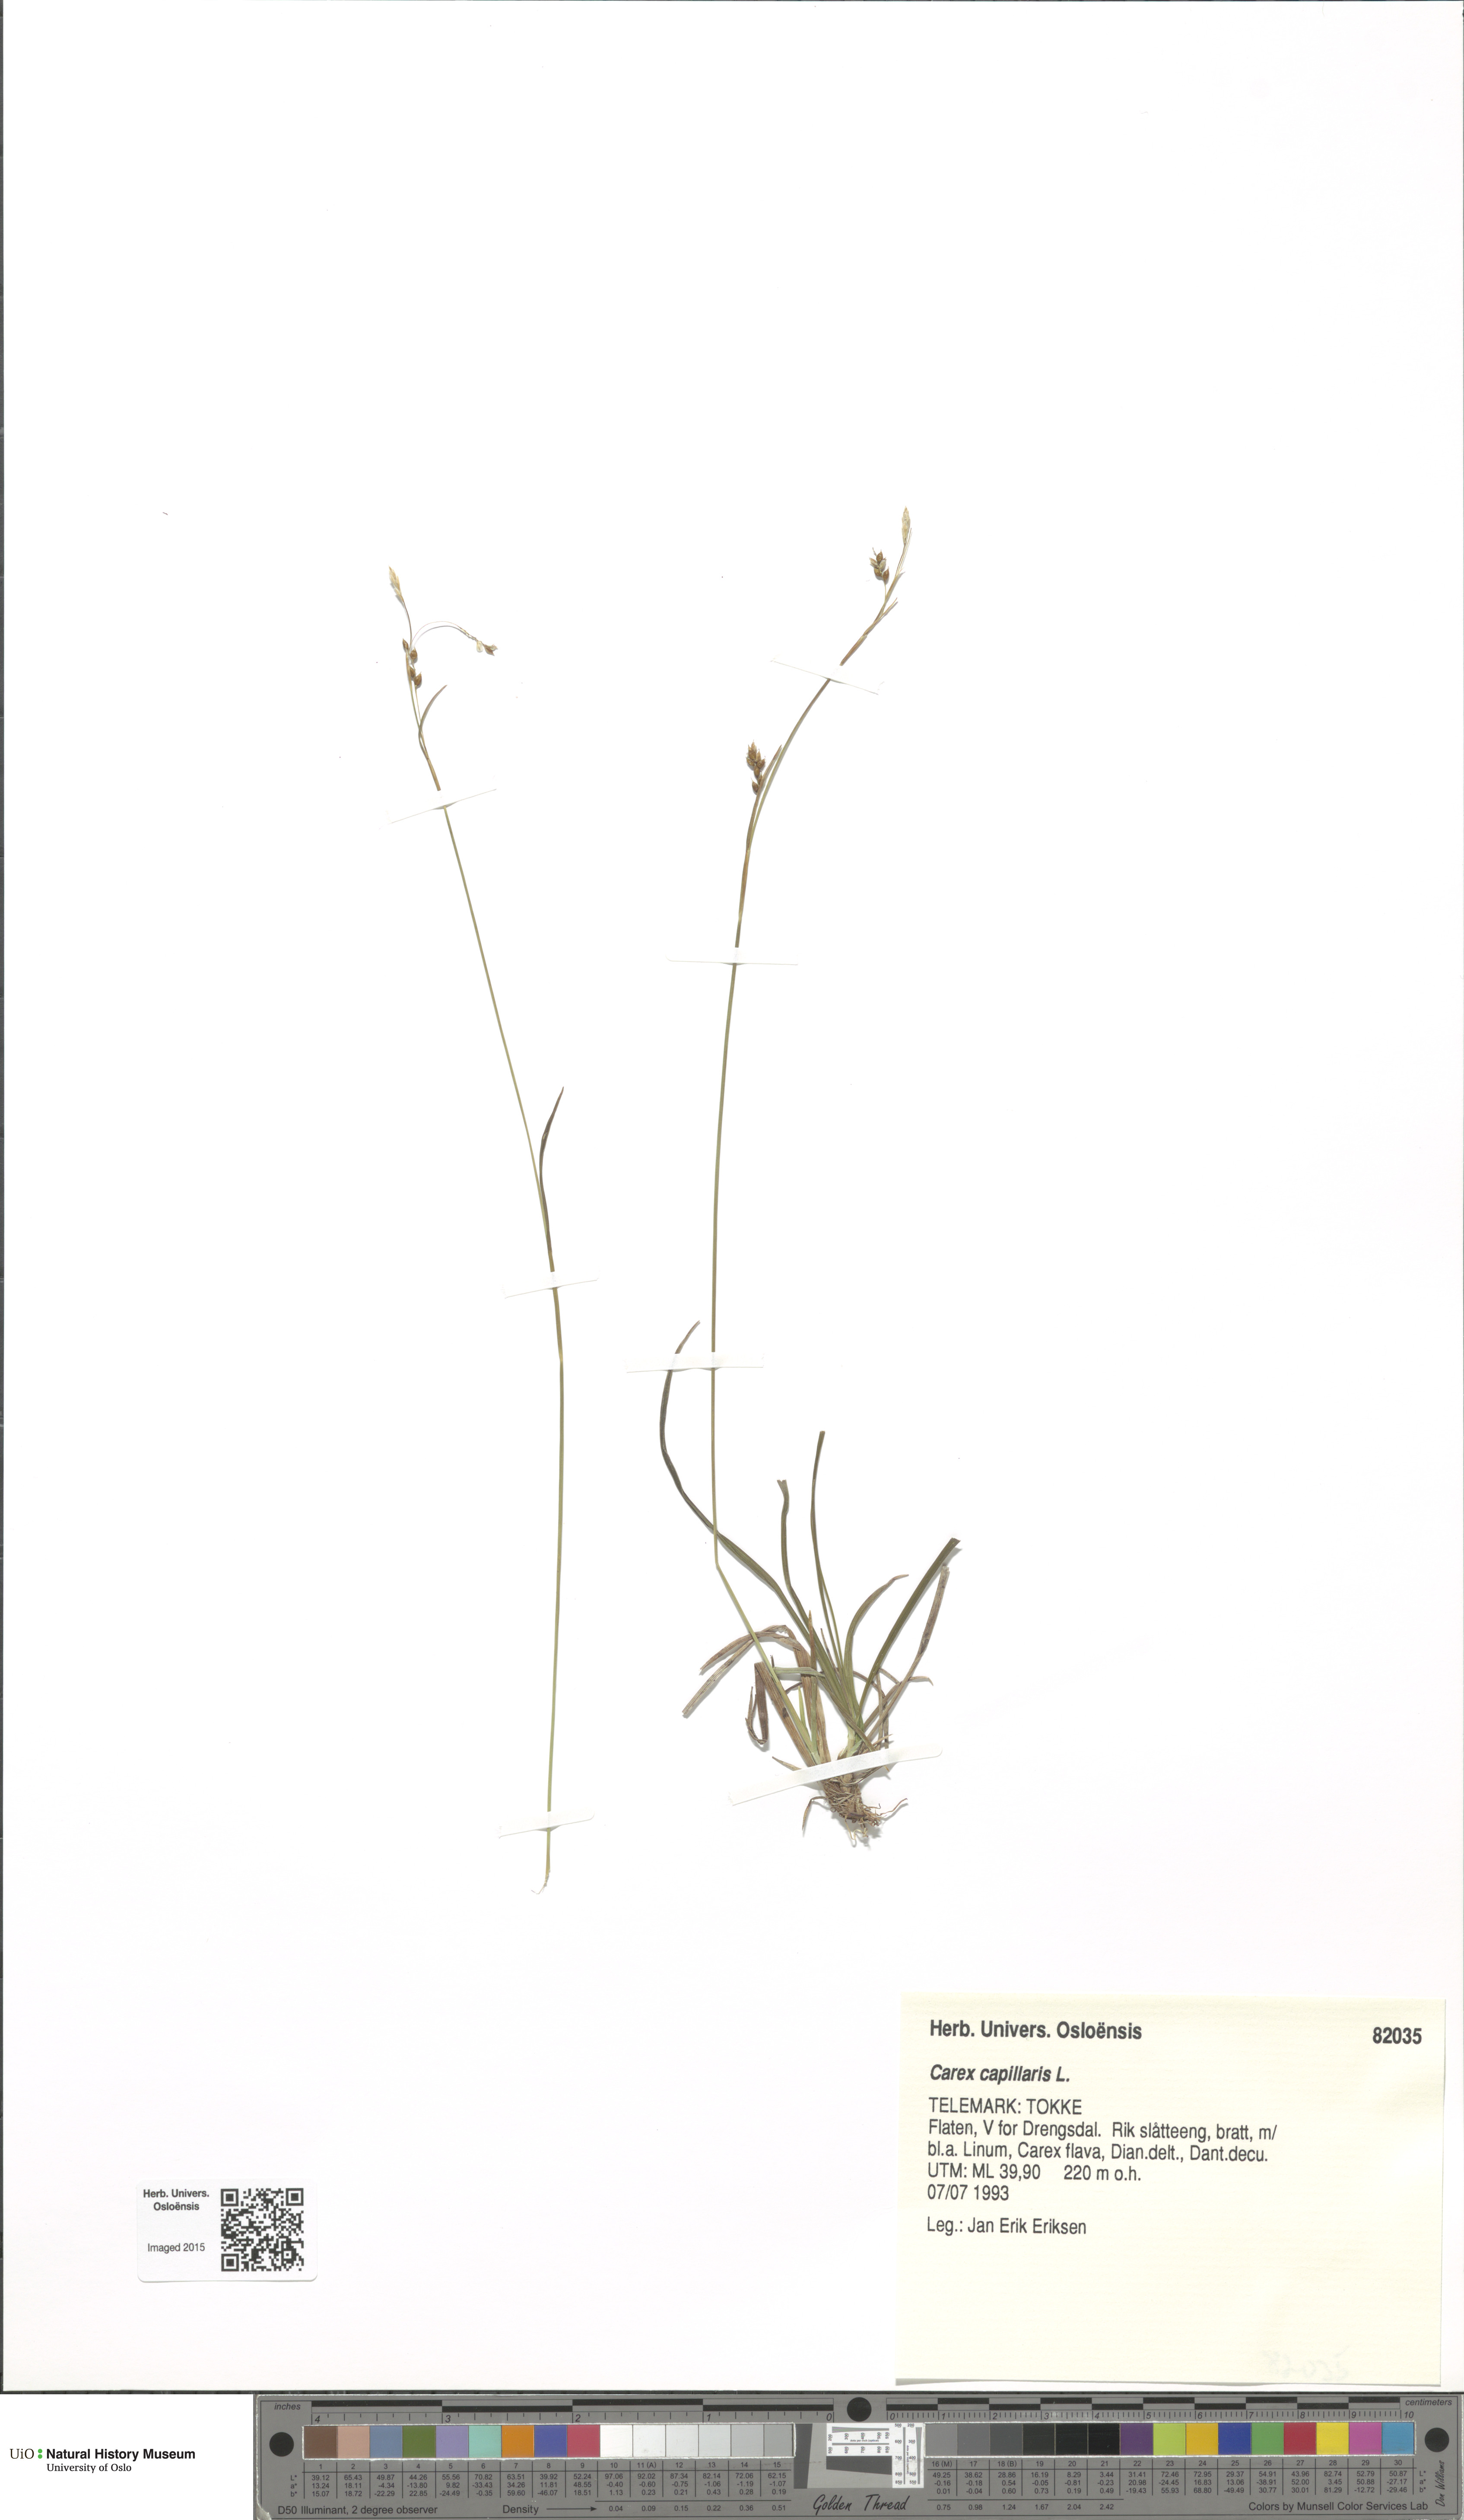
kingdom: Plantae
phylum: Tracheophyta
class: Liliopsida
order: Poales
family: Cyperaceae
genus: Carex
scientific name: Carex capillaris
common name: Hair sedge
